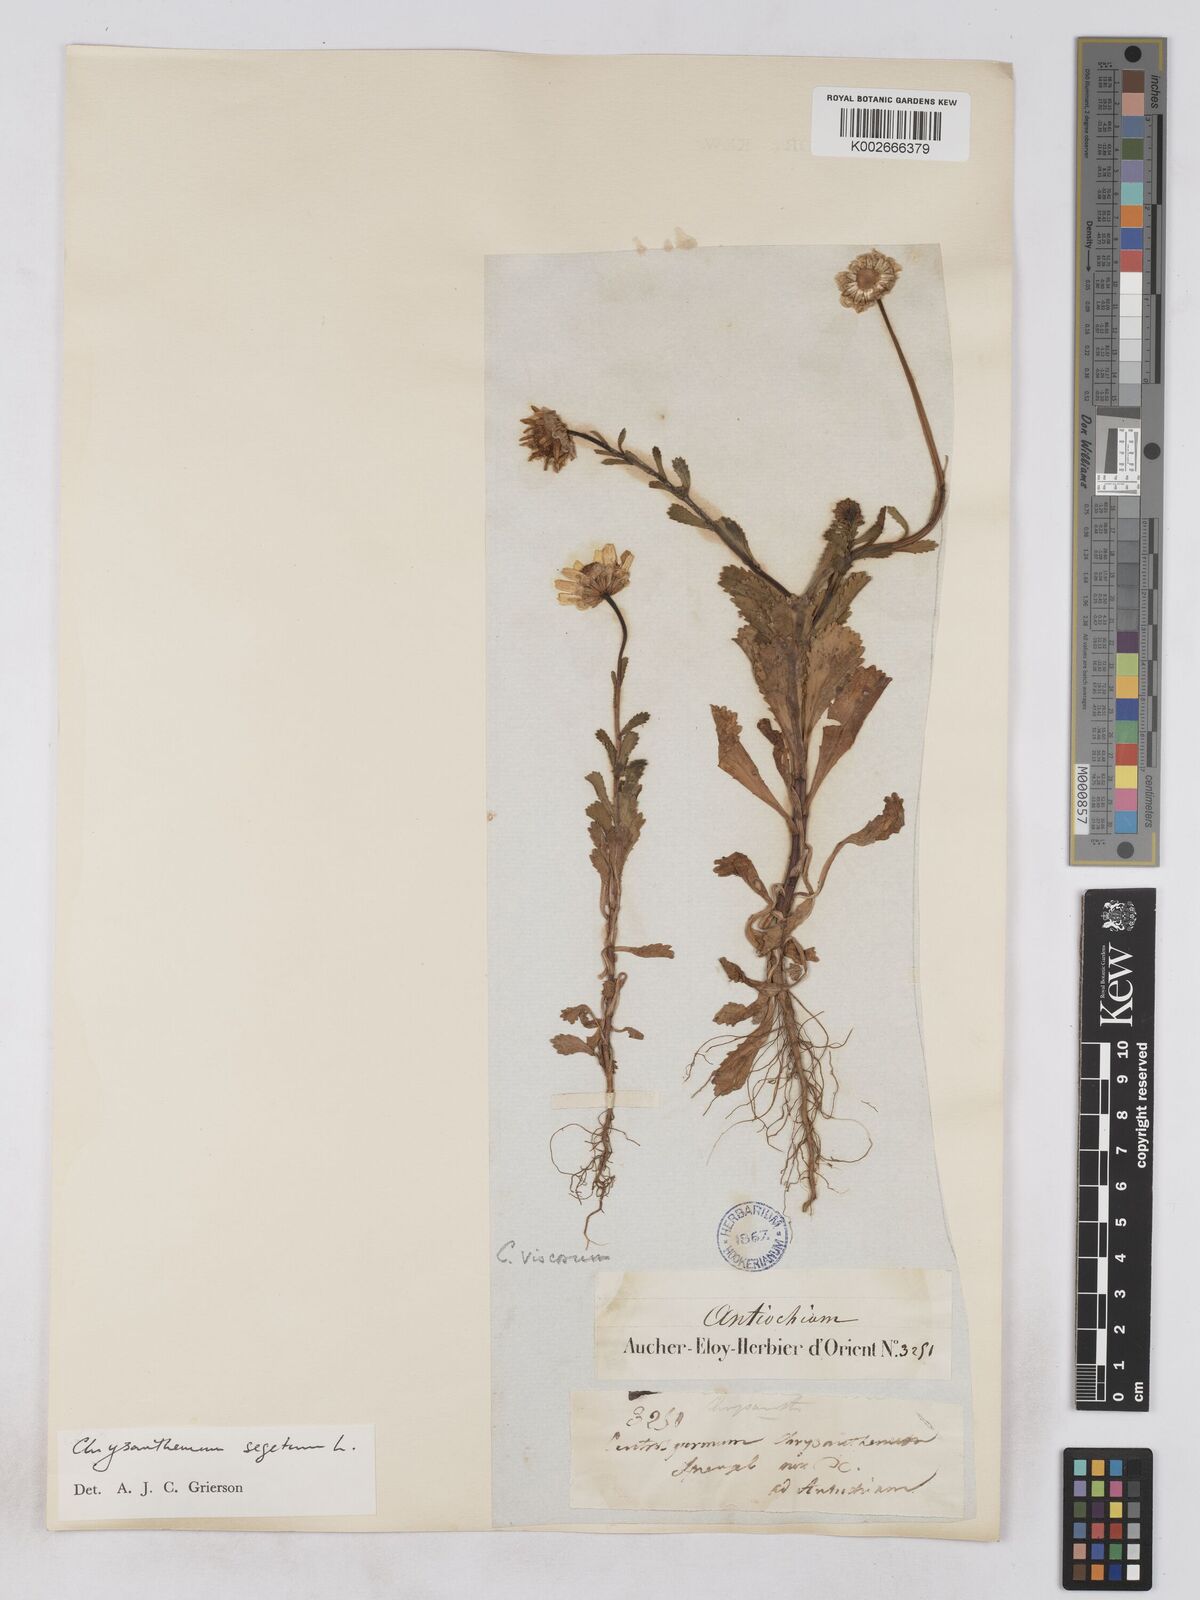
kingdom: Plantae
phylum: Tracheophyta
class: Magnoliopsida
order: Asterales
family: Asteraceae
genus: Heteranthemis
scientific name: Heteranthemis
